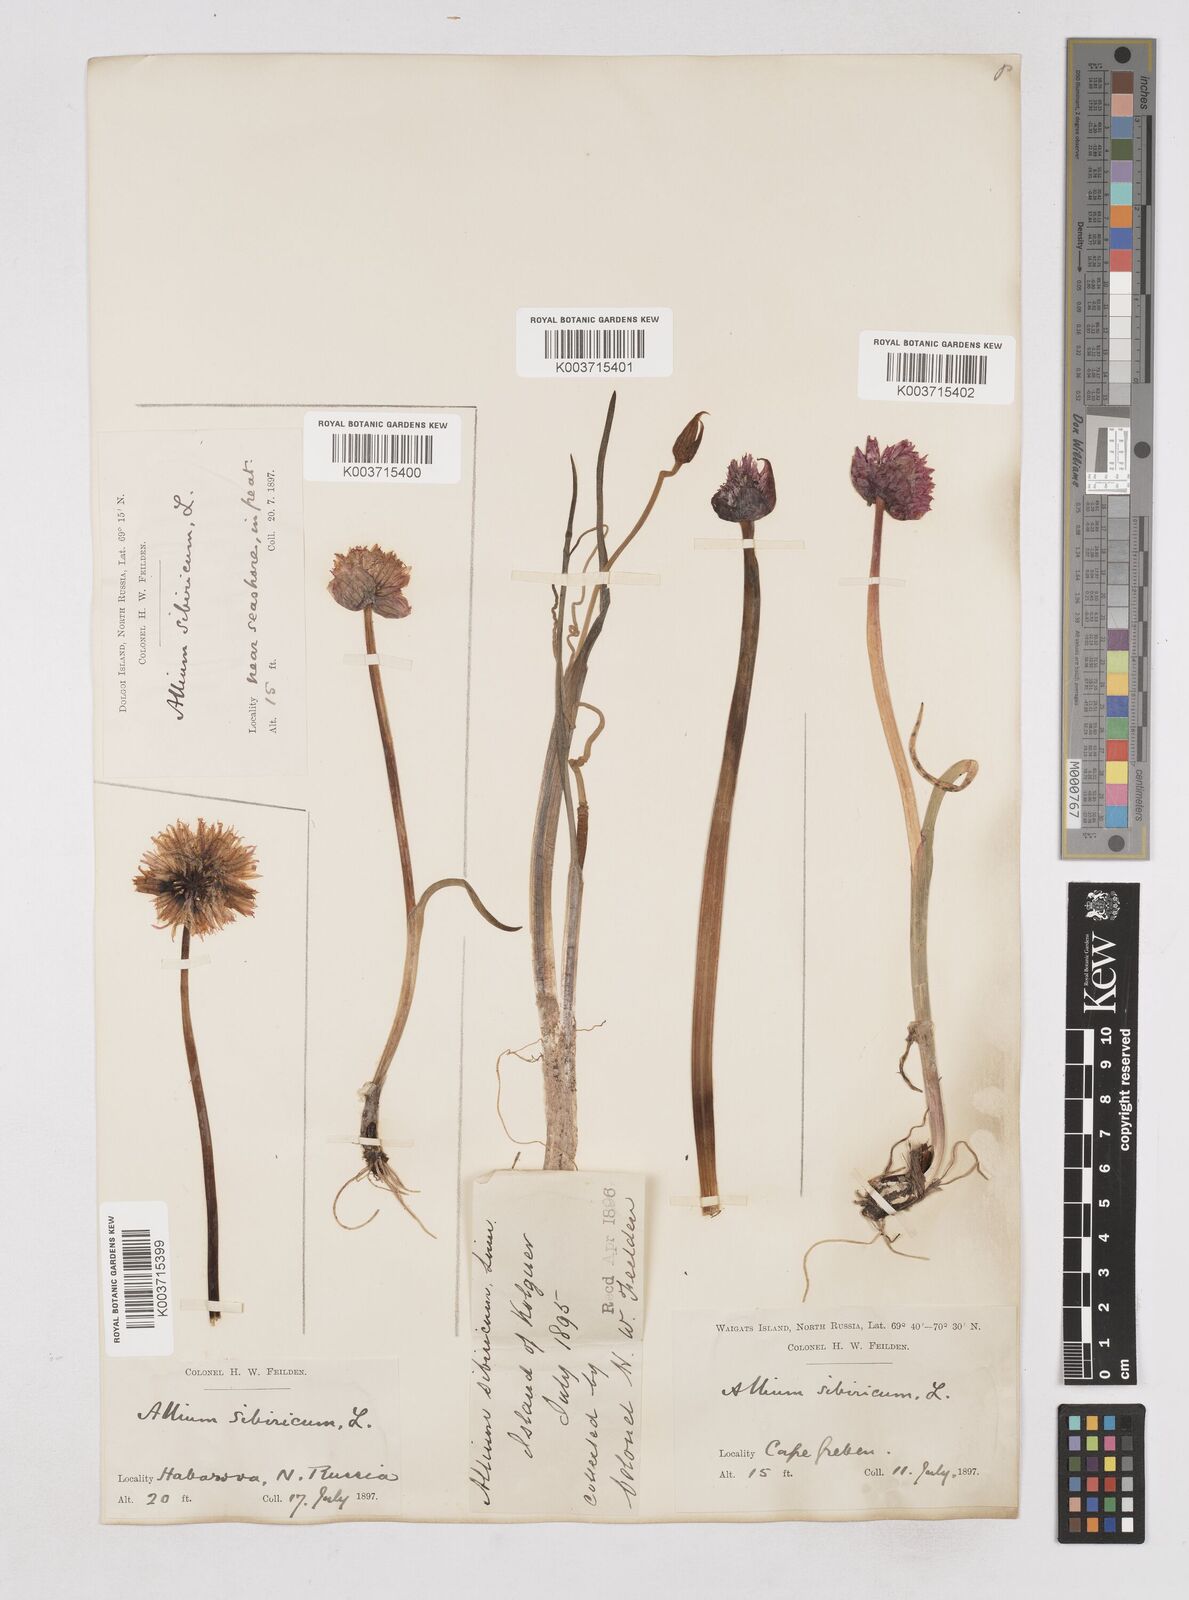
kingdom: Plantae
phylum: Tracheophyta
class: Liliopsida
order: Asparagales
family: Amaryllidaceae
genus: Allium
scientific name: Allium schoenoprasum
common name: Chives
